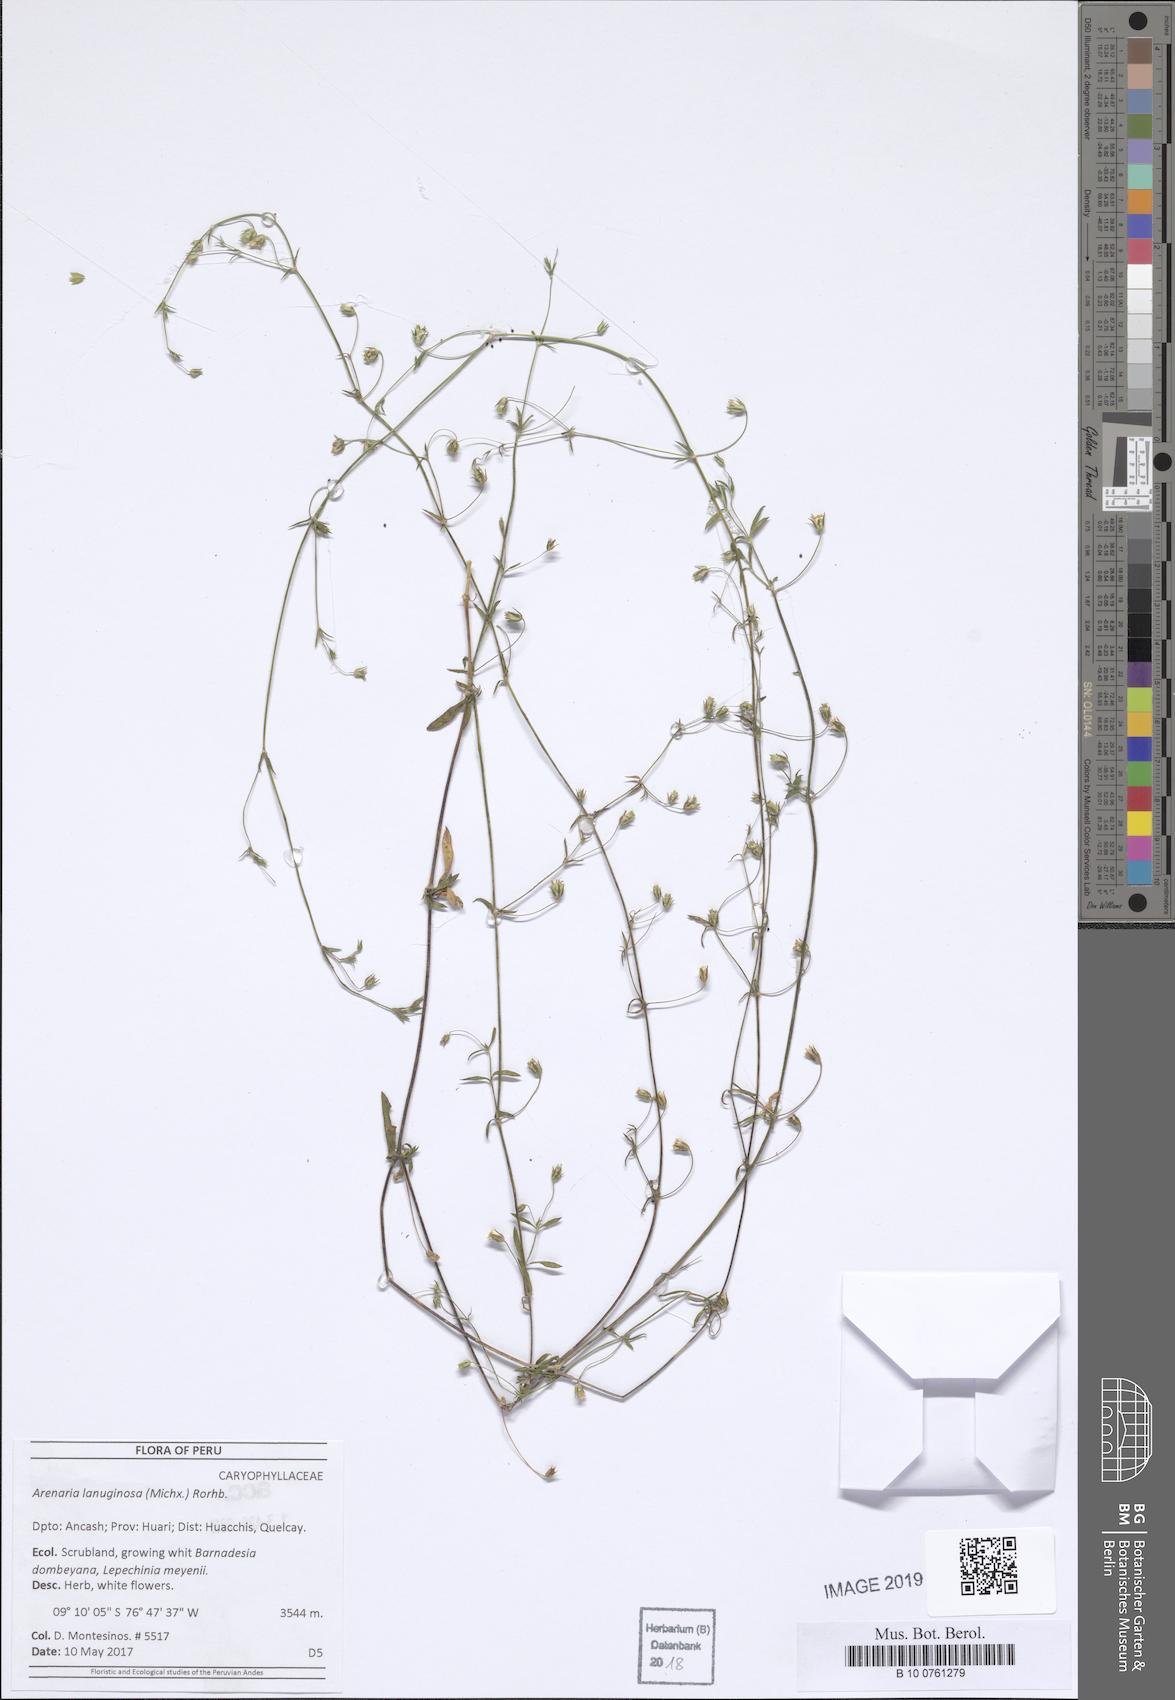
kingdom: Plantae
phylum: Tracheophyta
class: Magnoliopsida
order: Caryophyllales
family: Caryophyllaceae
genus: Arenaria
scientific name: Arenaria lanuginosa
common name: Spread sandwort
